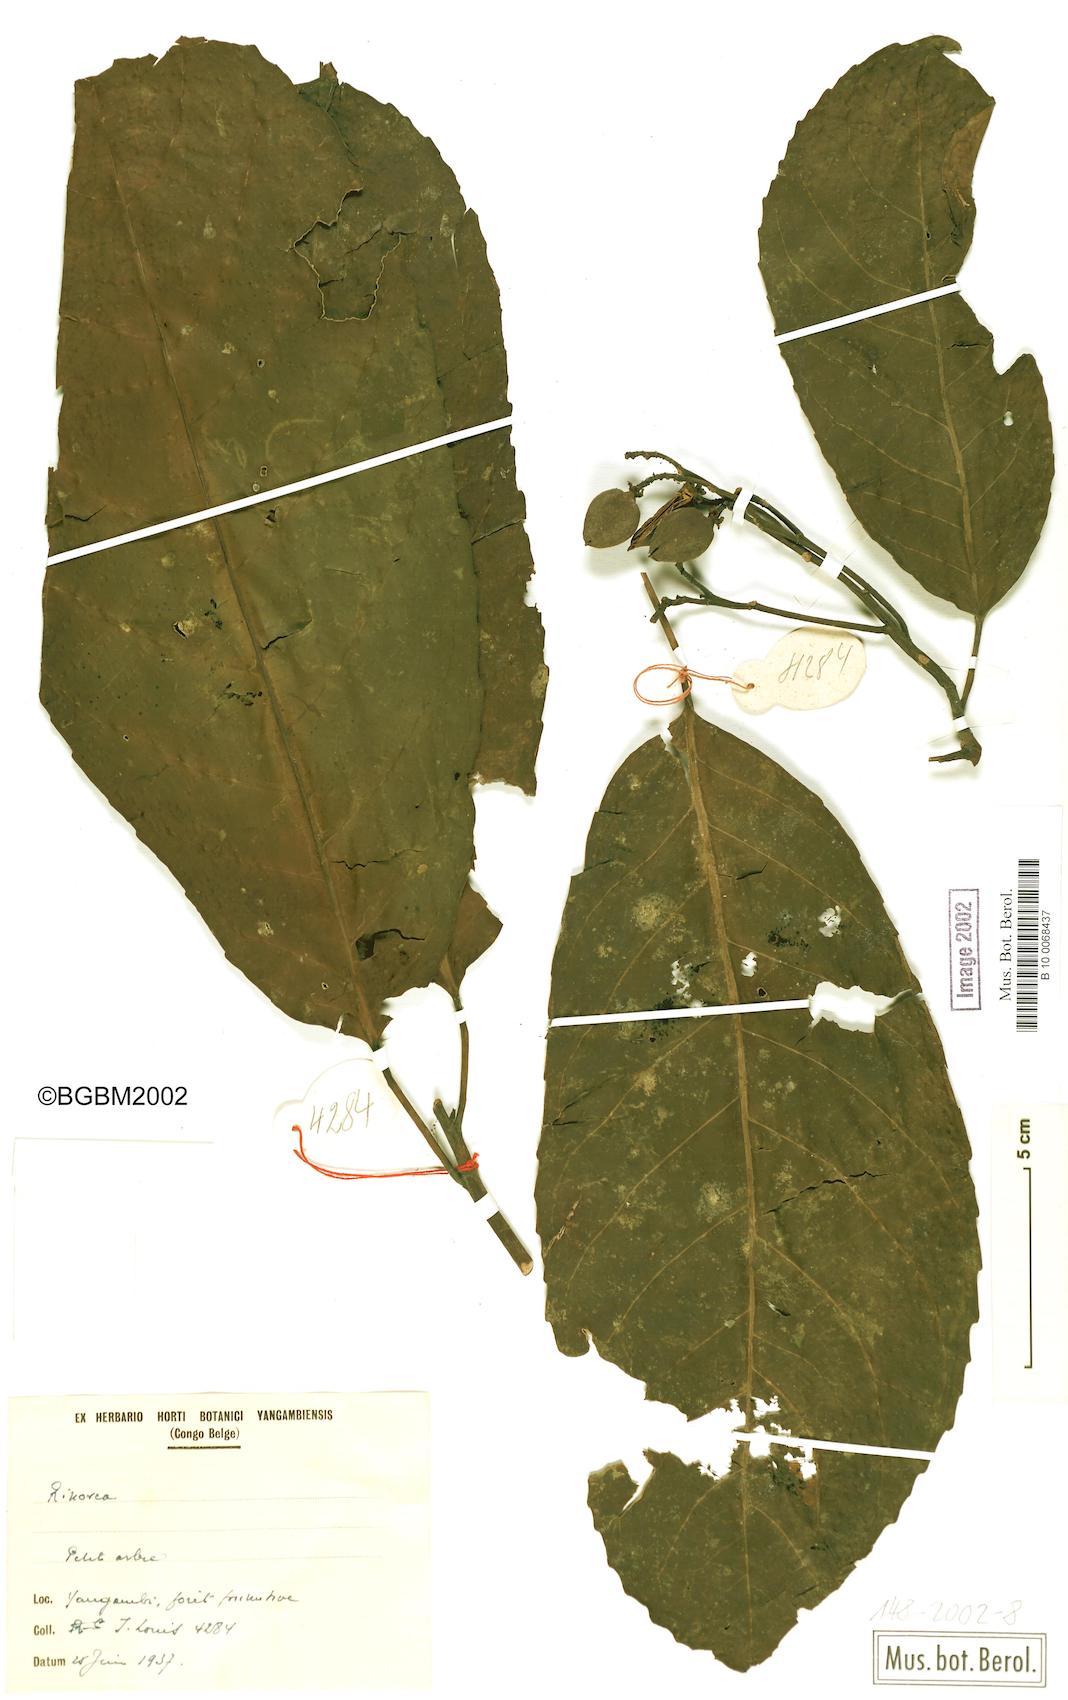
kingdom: Plantae
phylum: Tracheophyta
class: Magnoliopsida
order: Malpighiales
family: Violaceae
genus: Rinorea
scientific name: Rinorea
